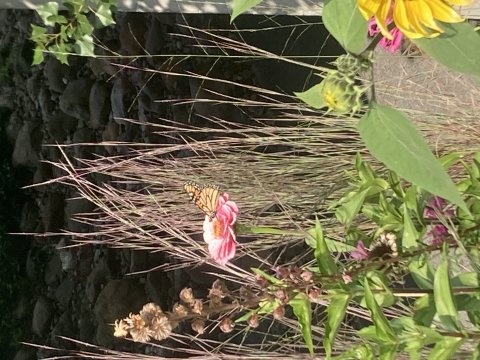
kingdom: Animalia
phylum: Arthropoda
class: Insecta
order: Lepidoptera
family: Nymphalidae
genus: Danaus
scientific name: Danaus plexippus
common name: Monarch
